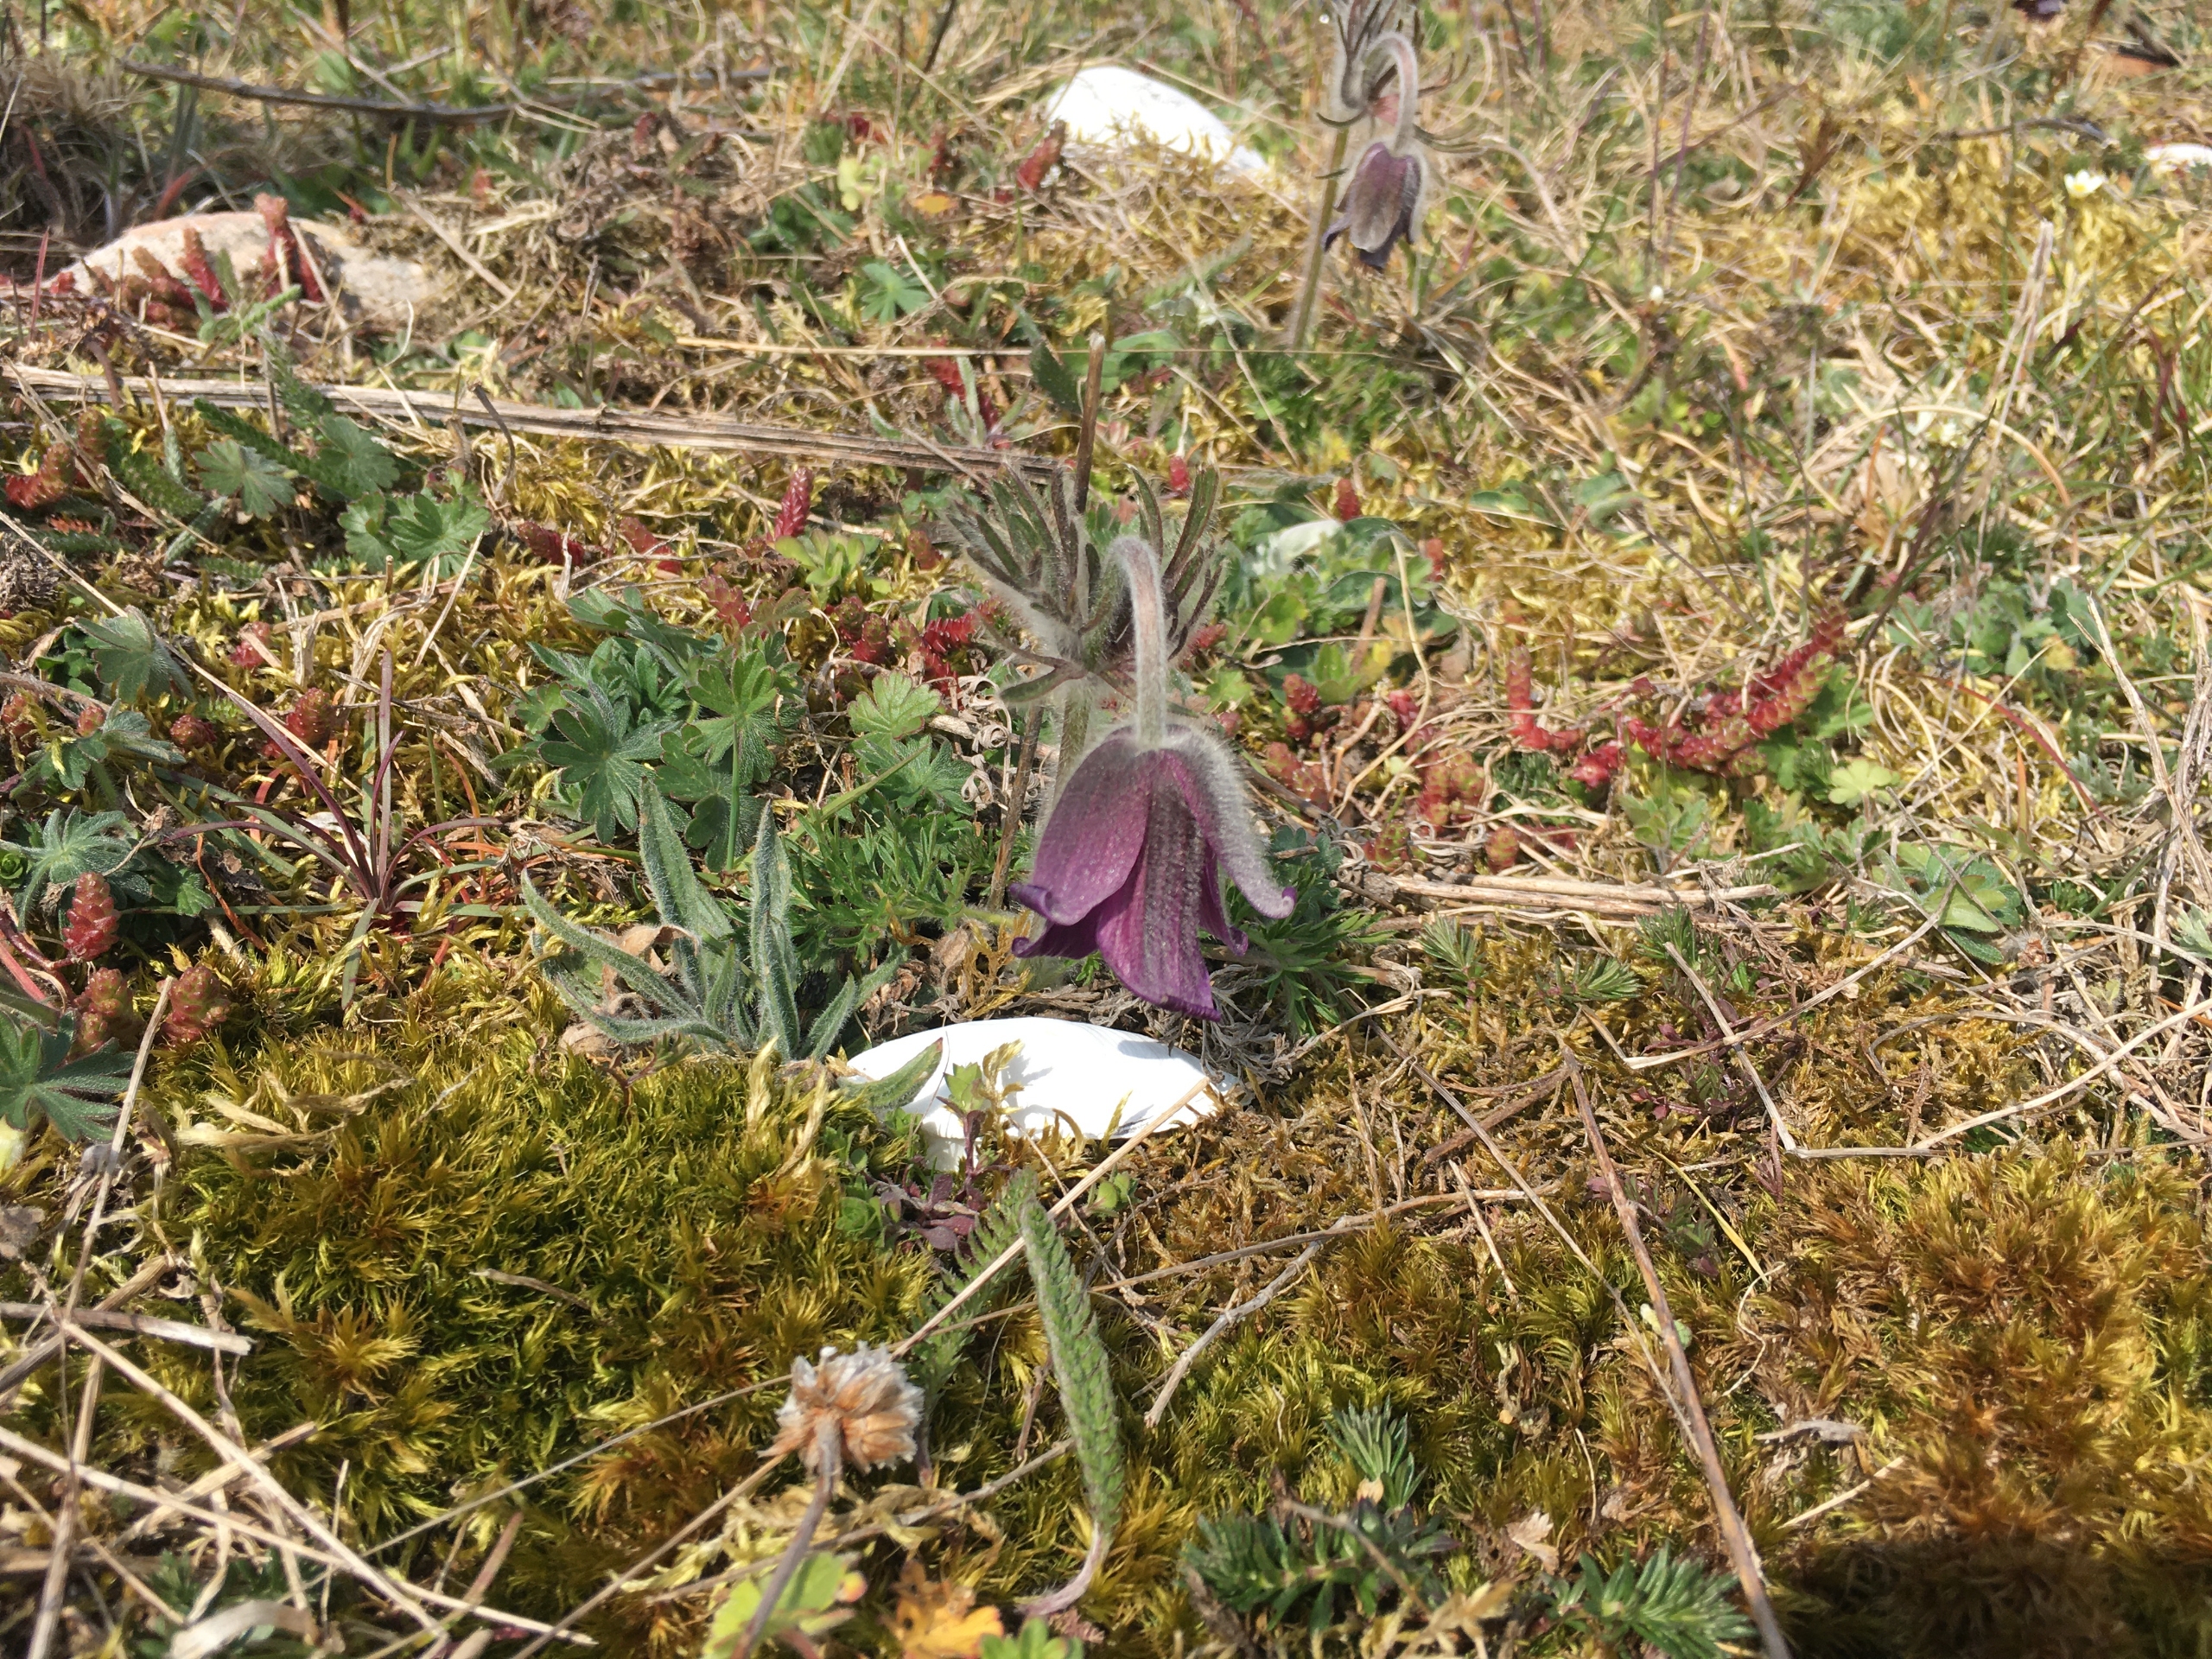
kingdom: Plantae
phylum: Tracheophyta
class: Magnoliopsida
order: Ranunculales
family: Ranunculaceae
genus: Pulsatilla
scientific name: Pulsatilla pratensis
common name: Nikkende kobjælde
